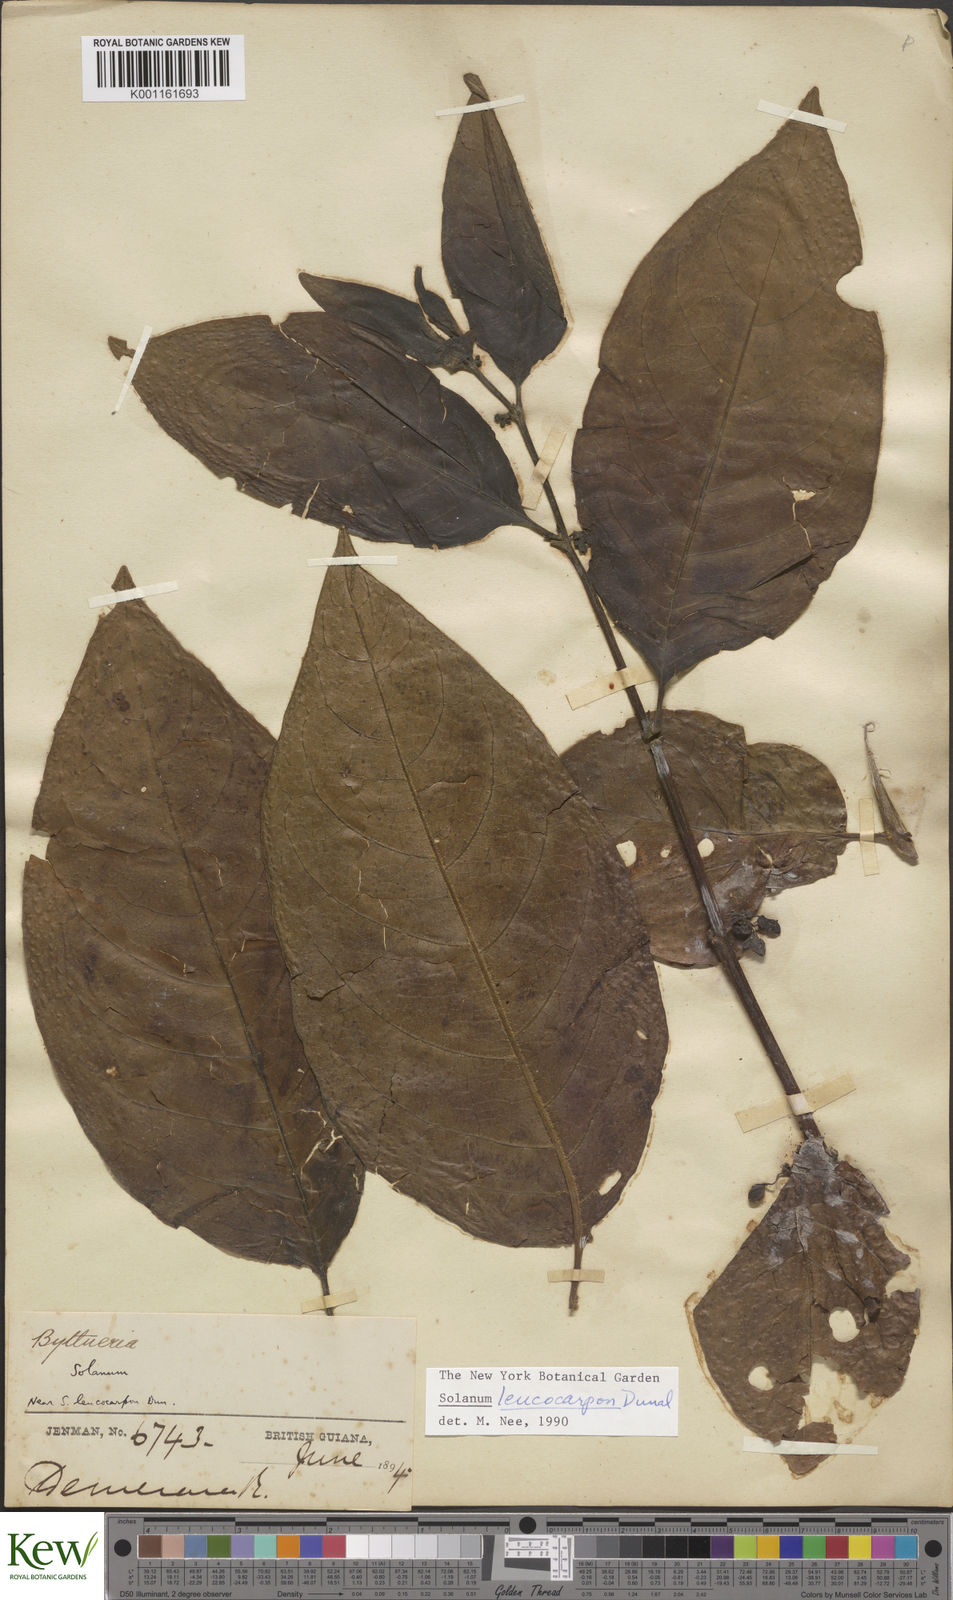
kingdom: Plantae
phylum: Tracheophyta
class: Magnoliopsida
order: Solanales
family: Solanaceae
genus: Solanum
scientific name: Solanum leucocarpon
